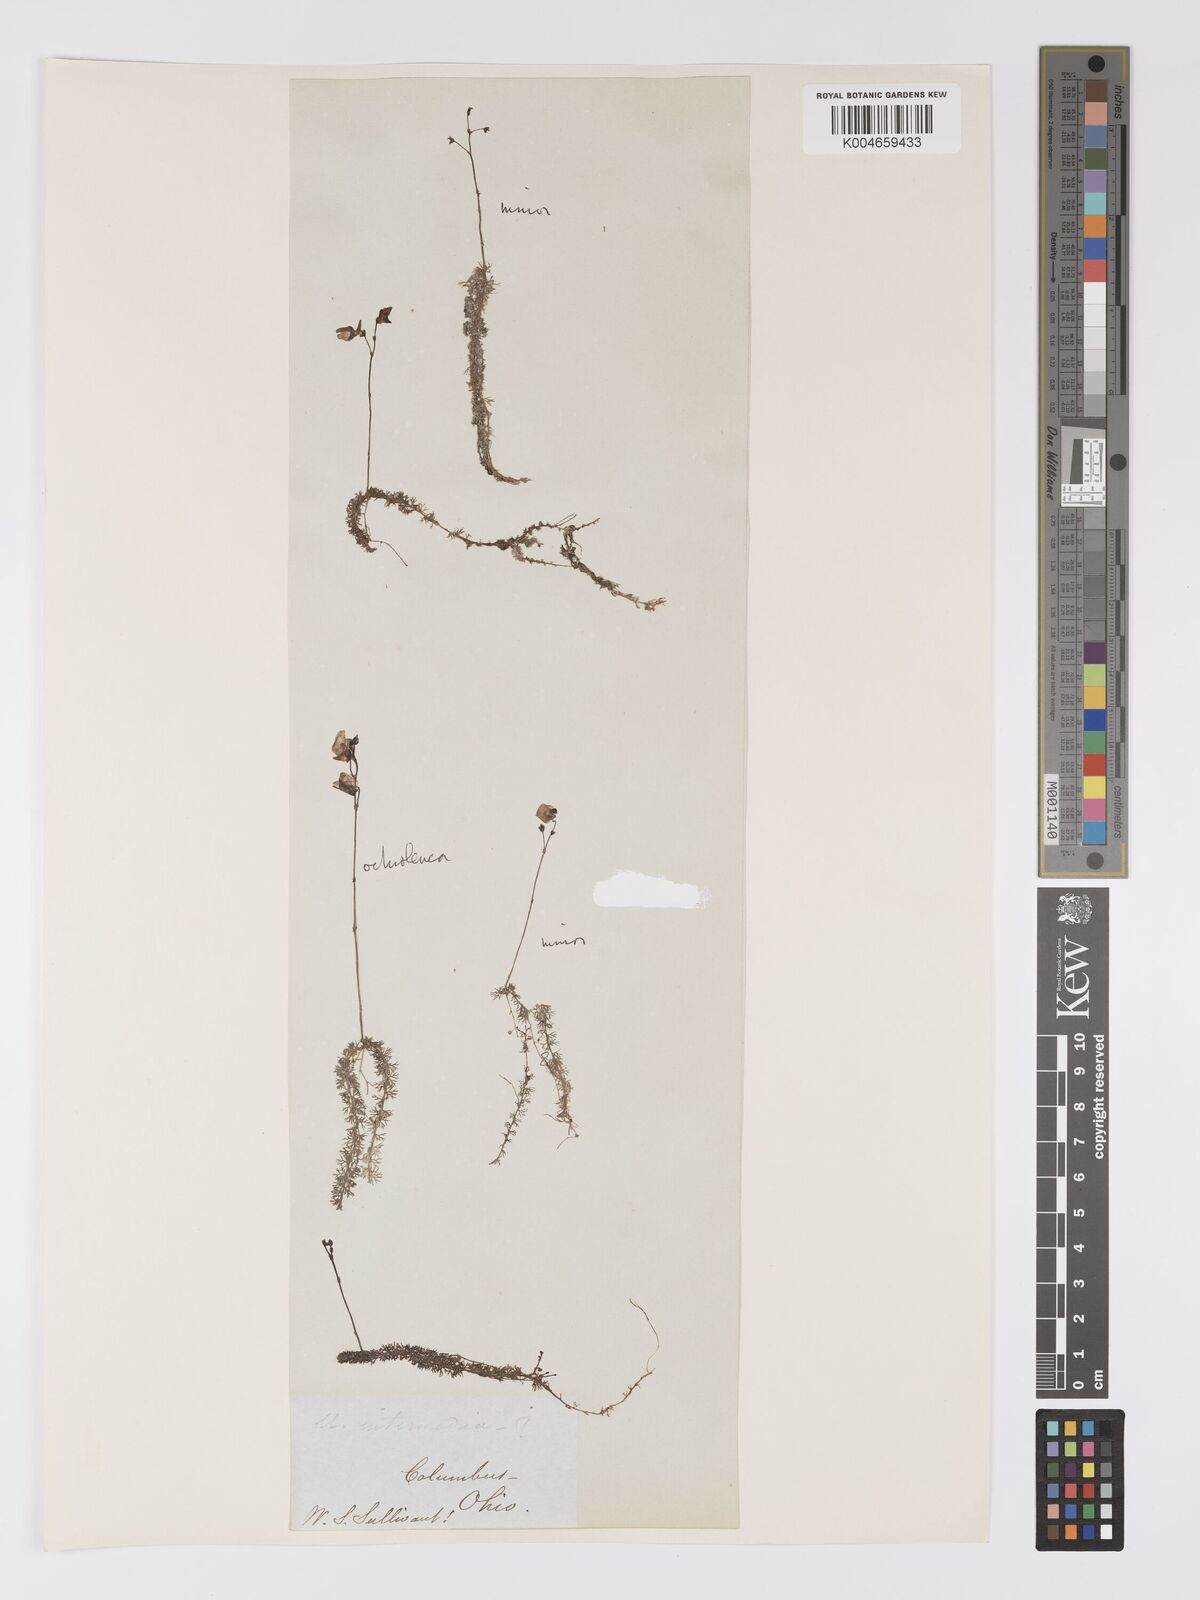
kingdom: Plantae
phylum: Tracheophyta
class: Magnoliopsida
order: Lamiales
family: Lentibulariaceae
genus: Utricularia
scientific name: Utricularia intermedia
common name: Intermediate bladderwort
